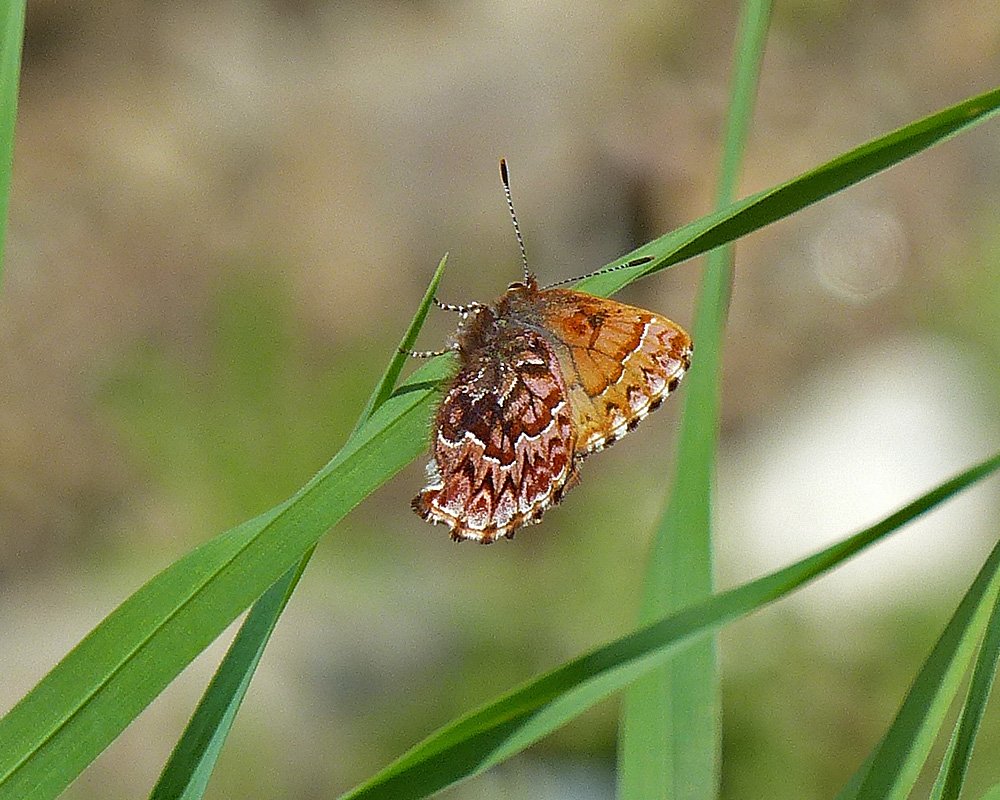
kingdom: Animalia
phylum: Arthropoda
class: Insecta
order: Lepidoptera
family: Lycaenidae
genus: Incisalia
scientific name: Incisalia eryphon
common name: Western Pine Elfin
